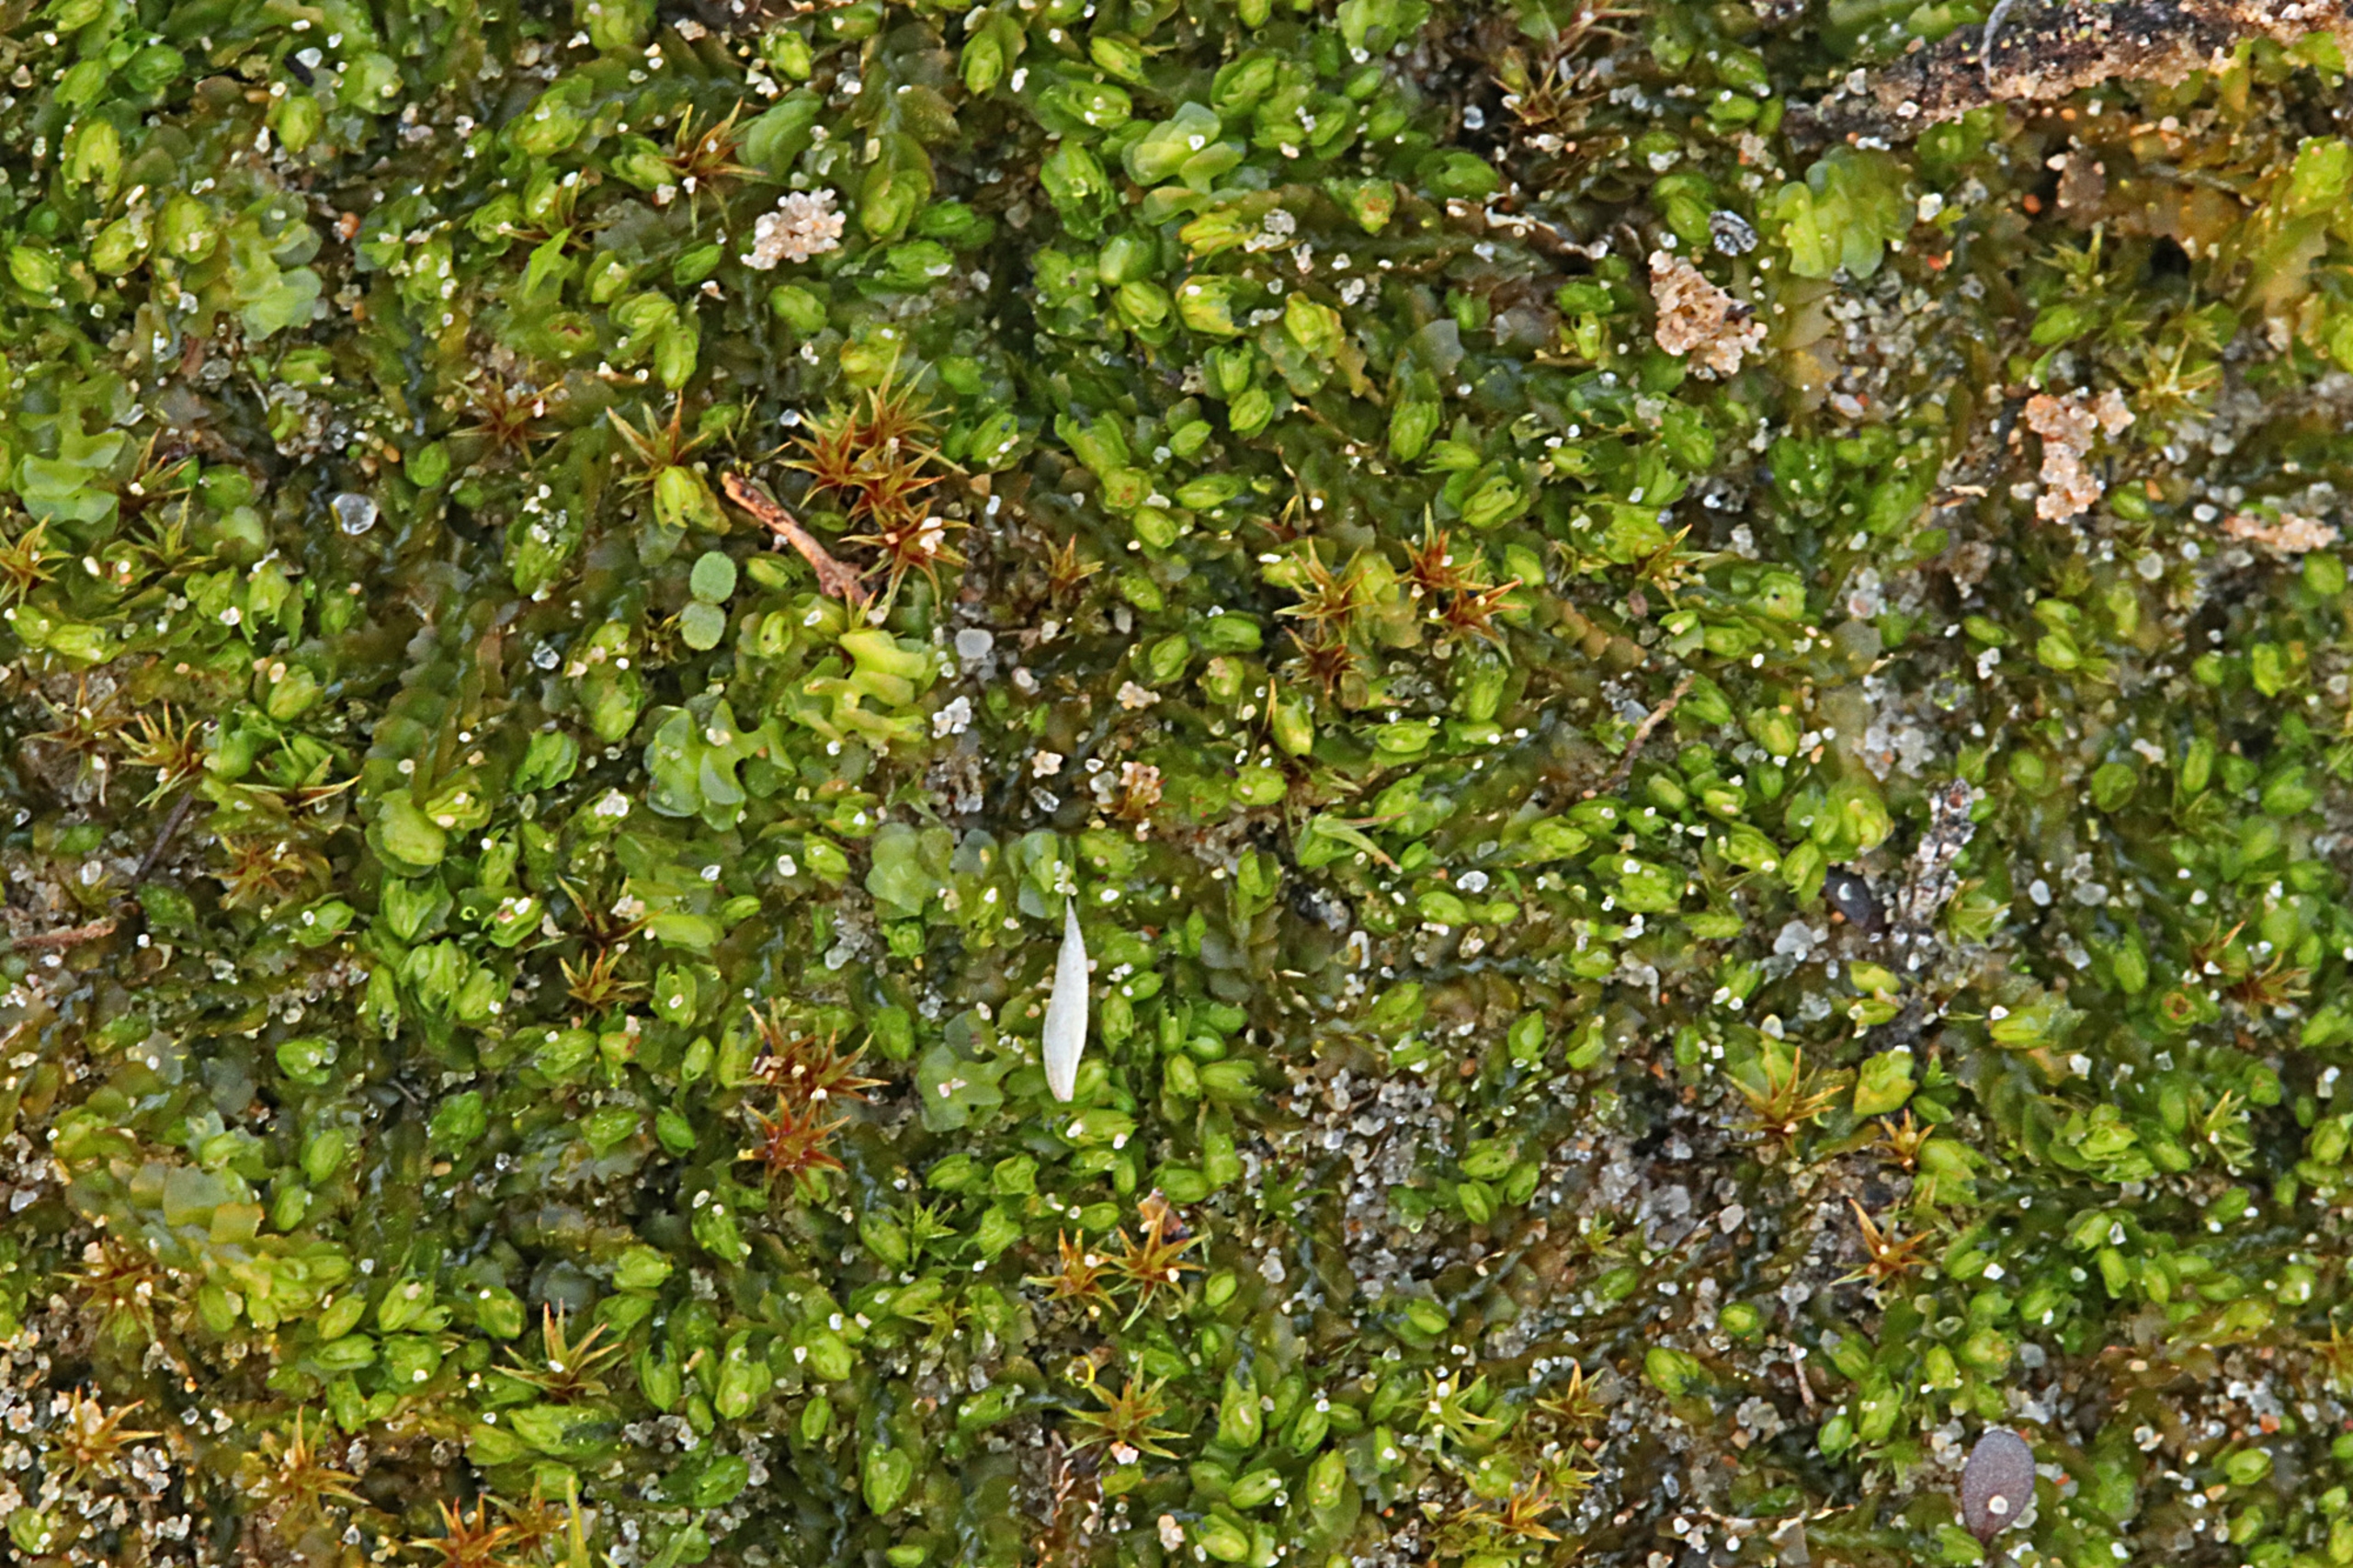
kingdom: Plantae
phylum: Marchantiophyta
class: Jungermanniopsida
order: Jungermanniales
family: Scapaniaceae
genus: Scapania
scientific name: Scapania compacta
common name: Tæt tveblad
